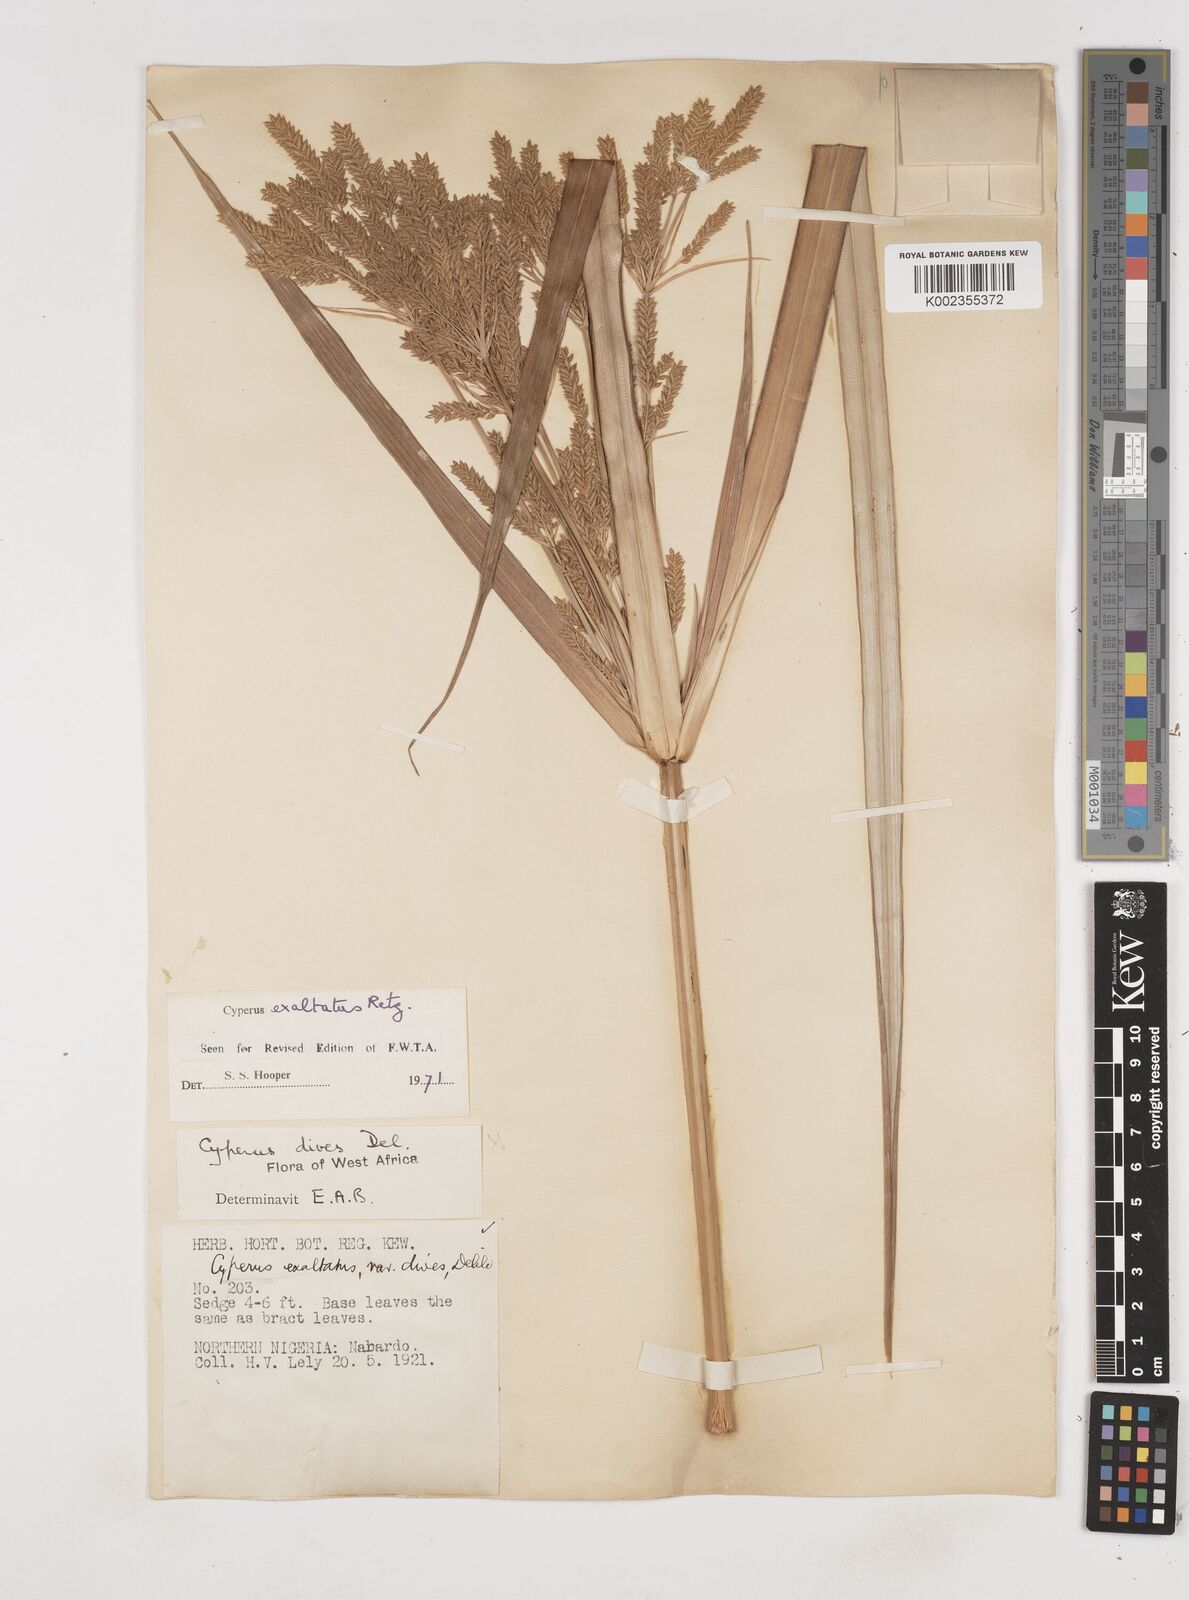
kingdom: Plantae
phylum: Tracheophyta
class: Liliopsida
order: Poales
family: Cyperaceae
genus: Cyperus
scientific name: Cyperus exaltatus
